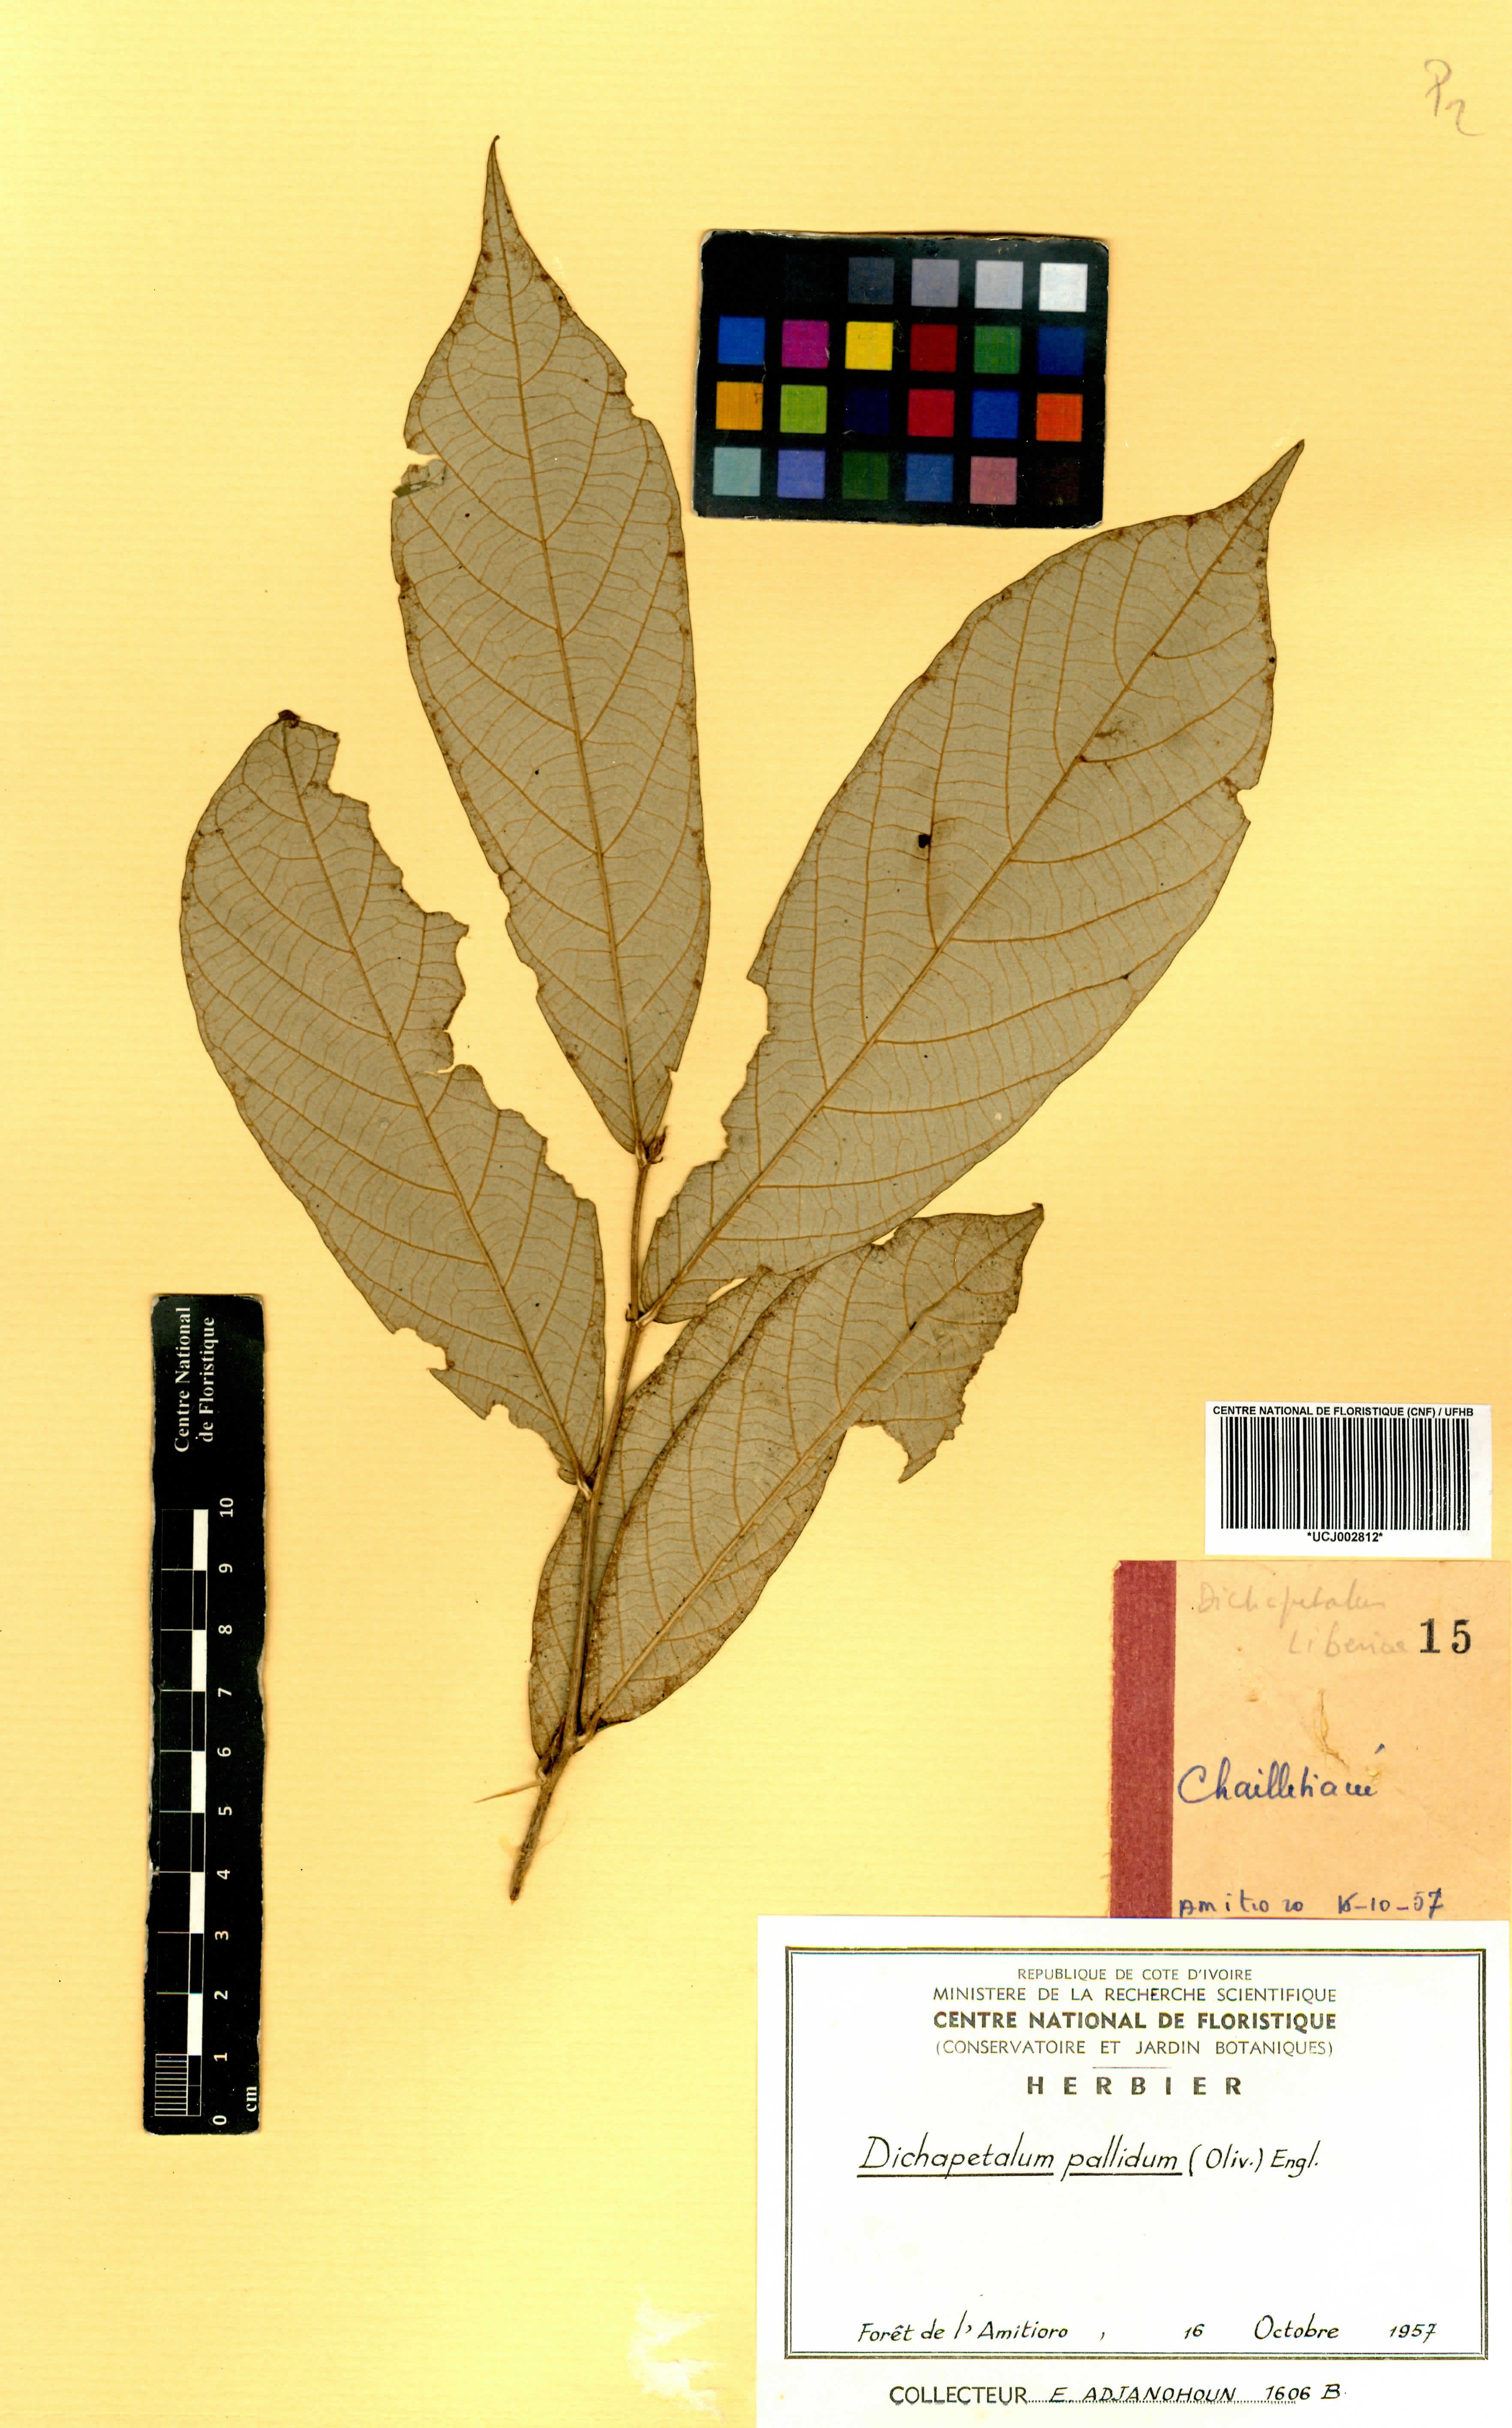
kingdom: Plantae
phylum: Tracheophyta
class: Magnoliopsida
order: Malpighiales
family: Dichapetalaceae
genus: Dichapetalum
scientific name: Dichapetalum pallidum
